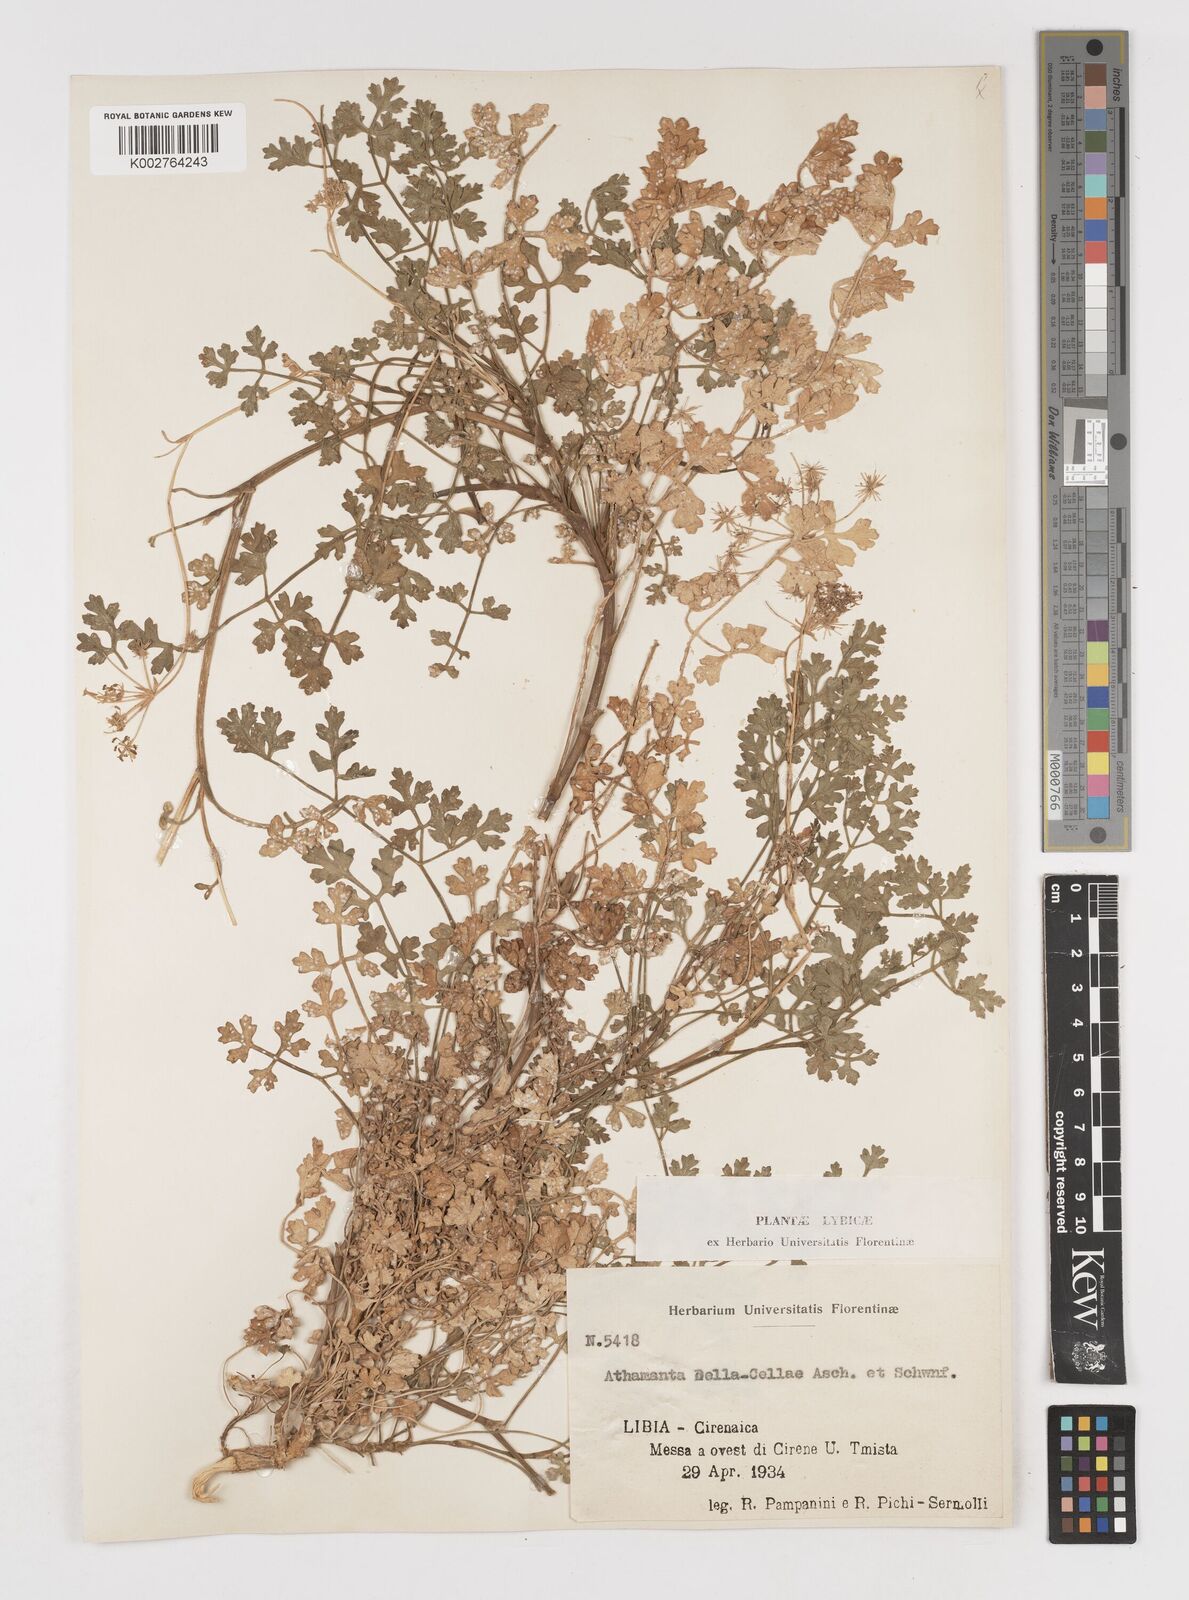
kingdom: Plantae
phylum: Tracheophyta
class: Magnoliopsida
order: Apiales
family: Apiaceae
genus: Daucus
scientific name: Daucus della-cellae
